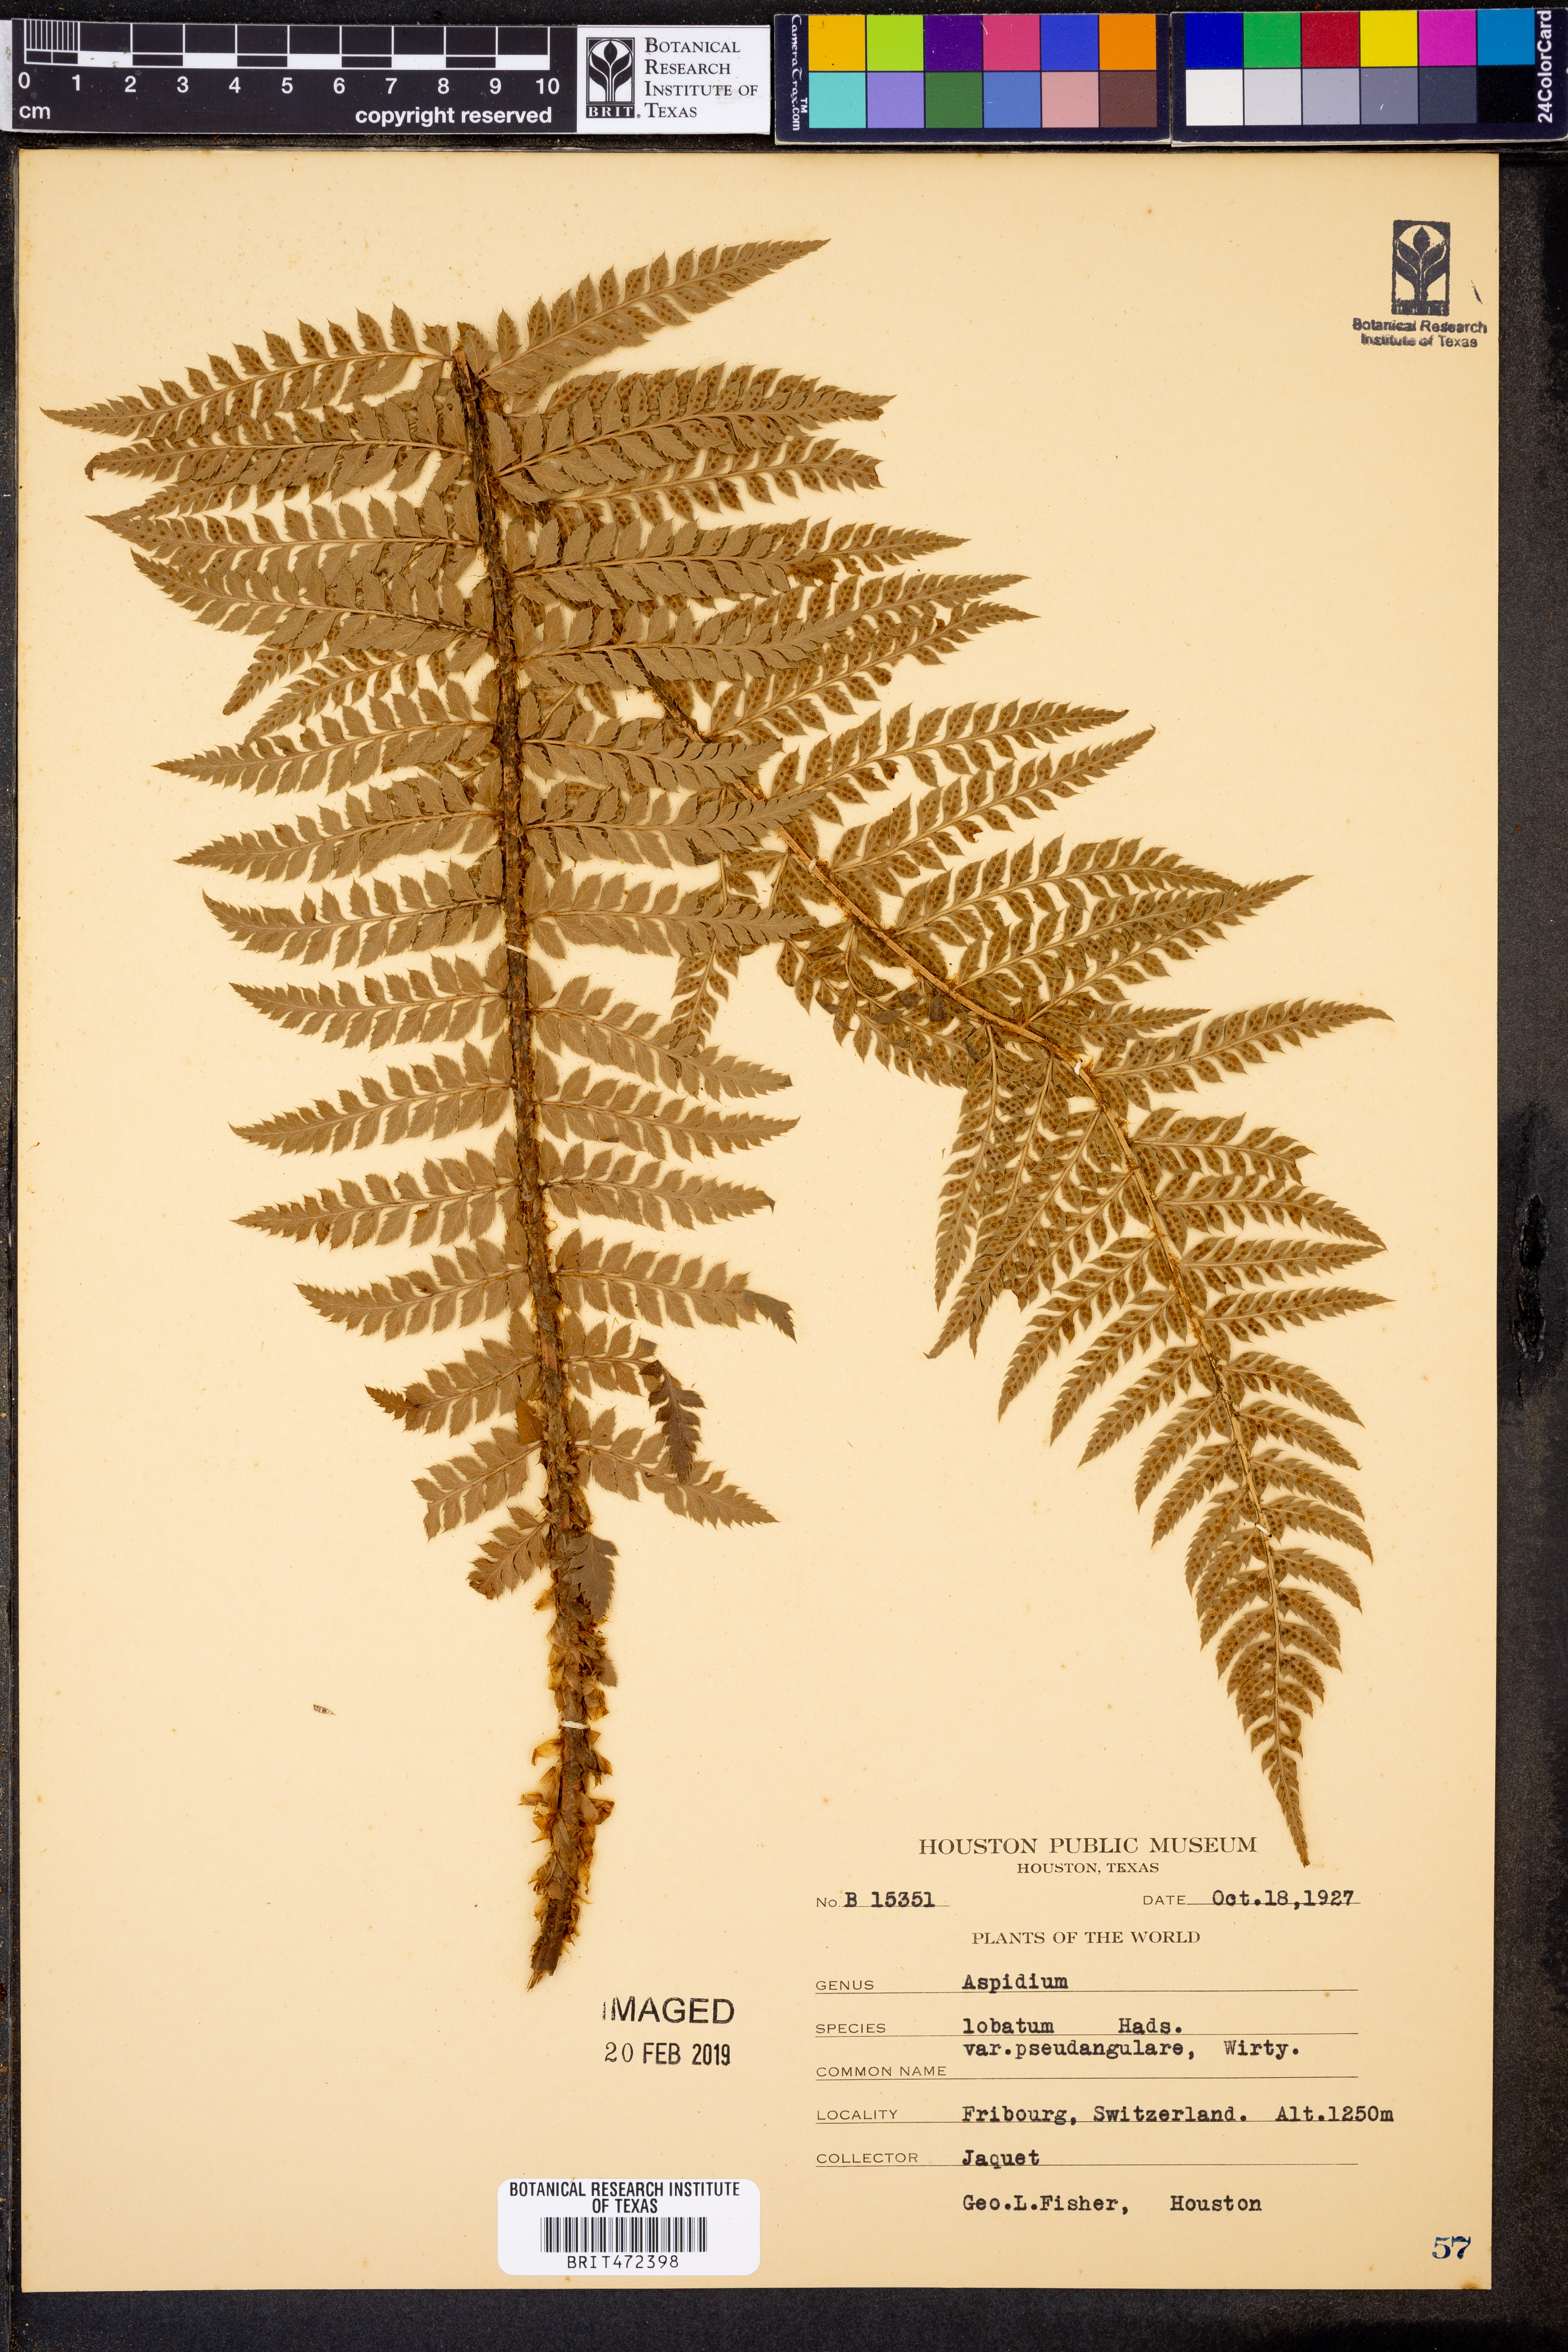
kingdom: Plantae
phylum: Tracheophyta
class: Polypodiopsida
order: Polypodiales
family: Dryopteridaceae
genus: Polystichum
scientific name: Polystichum aculeatum
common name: Hard shield-fern
